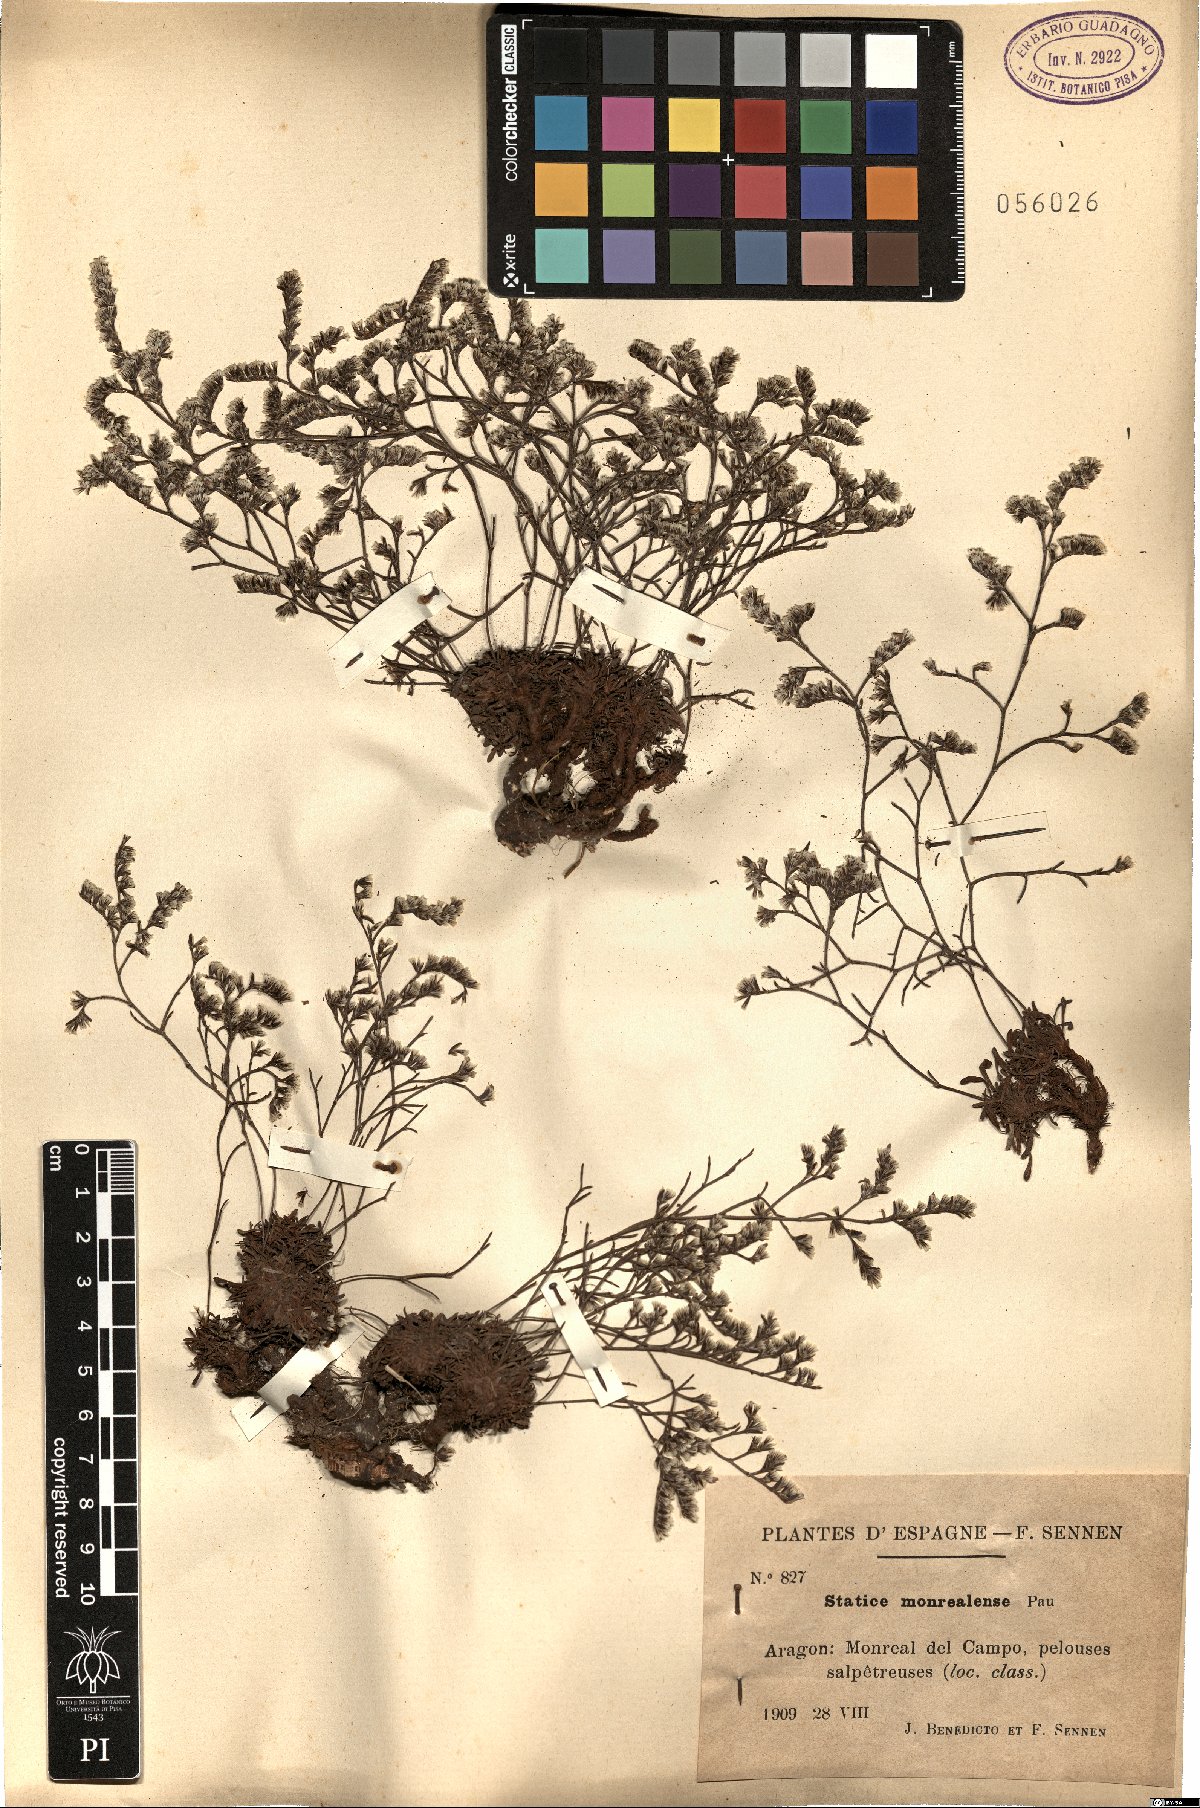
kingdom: Plantae
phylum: Tracheophyta
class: Magnoliopsida
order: Caryophyllales
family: Plumbaginaceae
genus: Limonium
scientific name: Limonium aragonense
